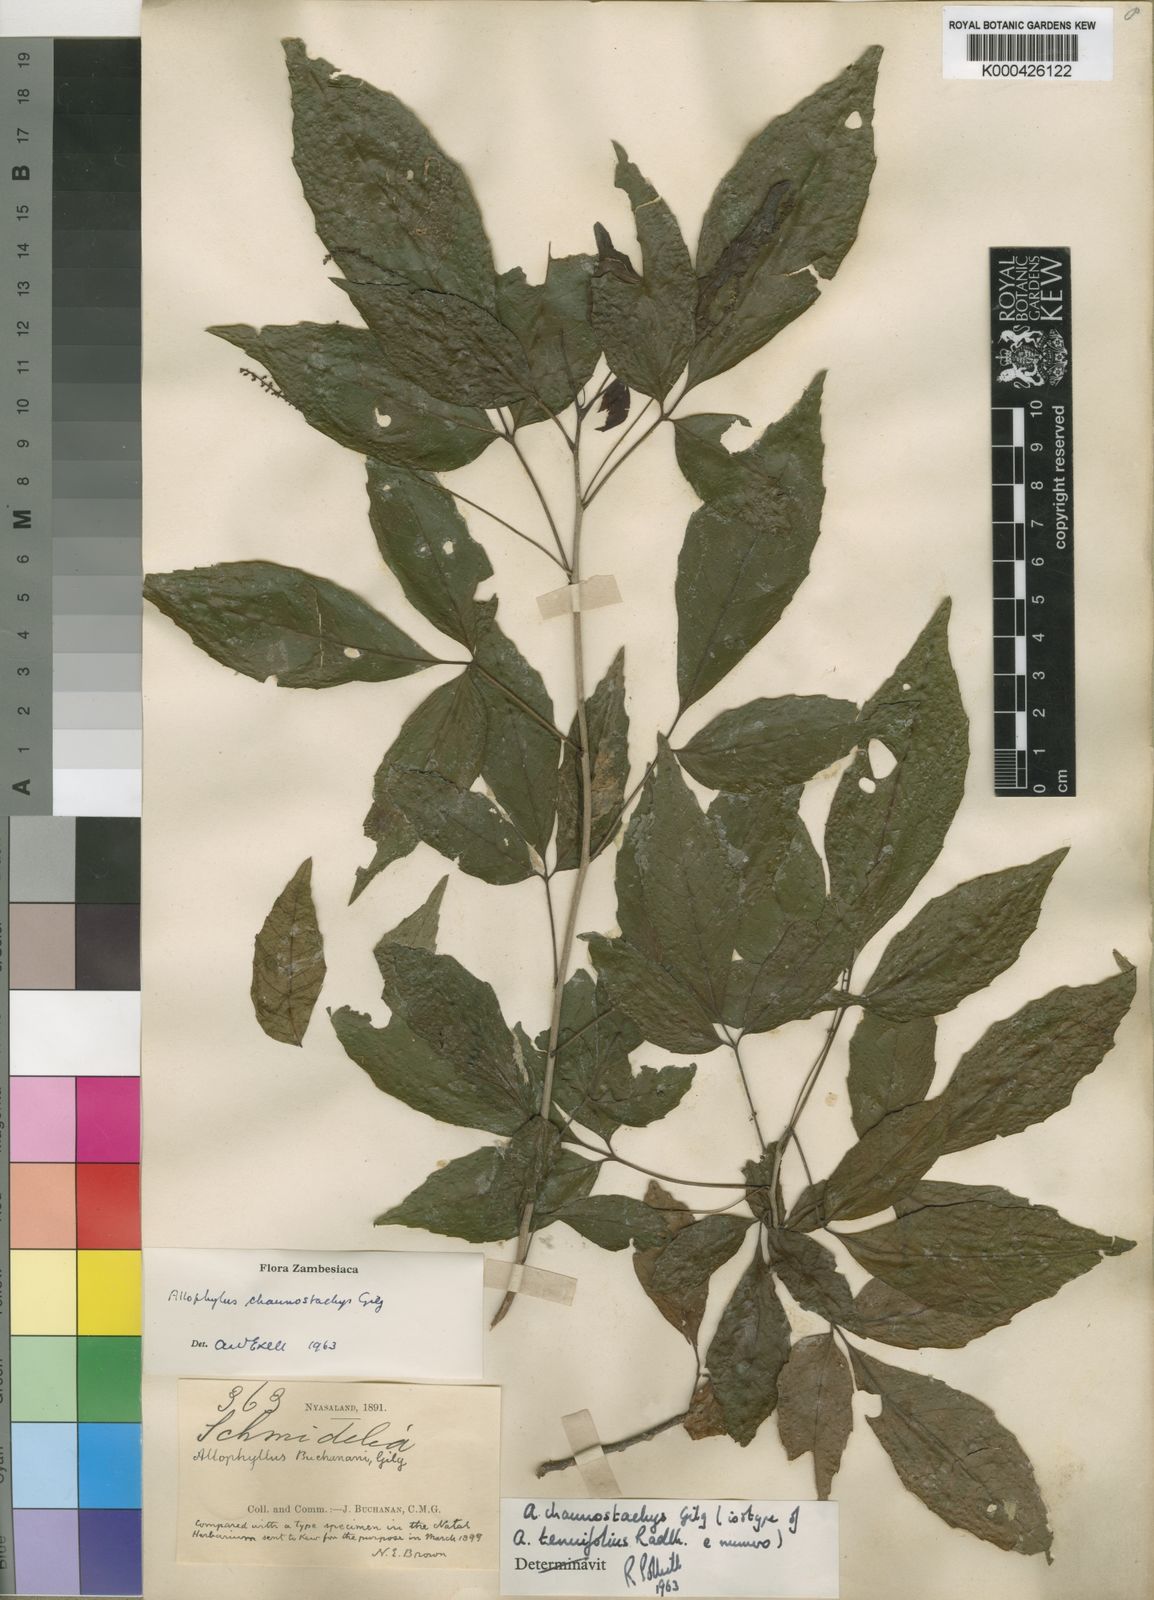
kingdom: Plantae
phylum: Tracheophyta
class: Magnoliopsida
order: Sapindales
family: Sapindaceae
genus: Allophylus
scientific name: Allophylus chaunostachys
